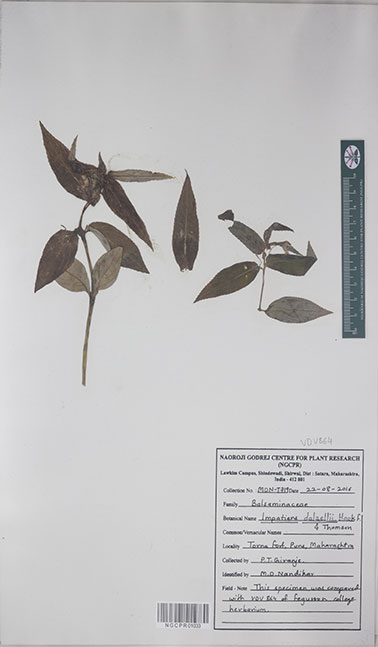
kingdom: Plantae
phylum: Tracheophyta
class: Magnoliopsida
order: Ericales
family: Balsaminaceae
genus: Impatiens
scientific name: Impatiens dalzellii
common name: Dalzell's yellow balsam
